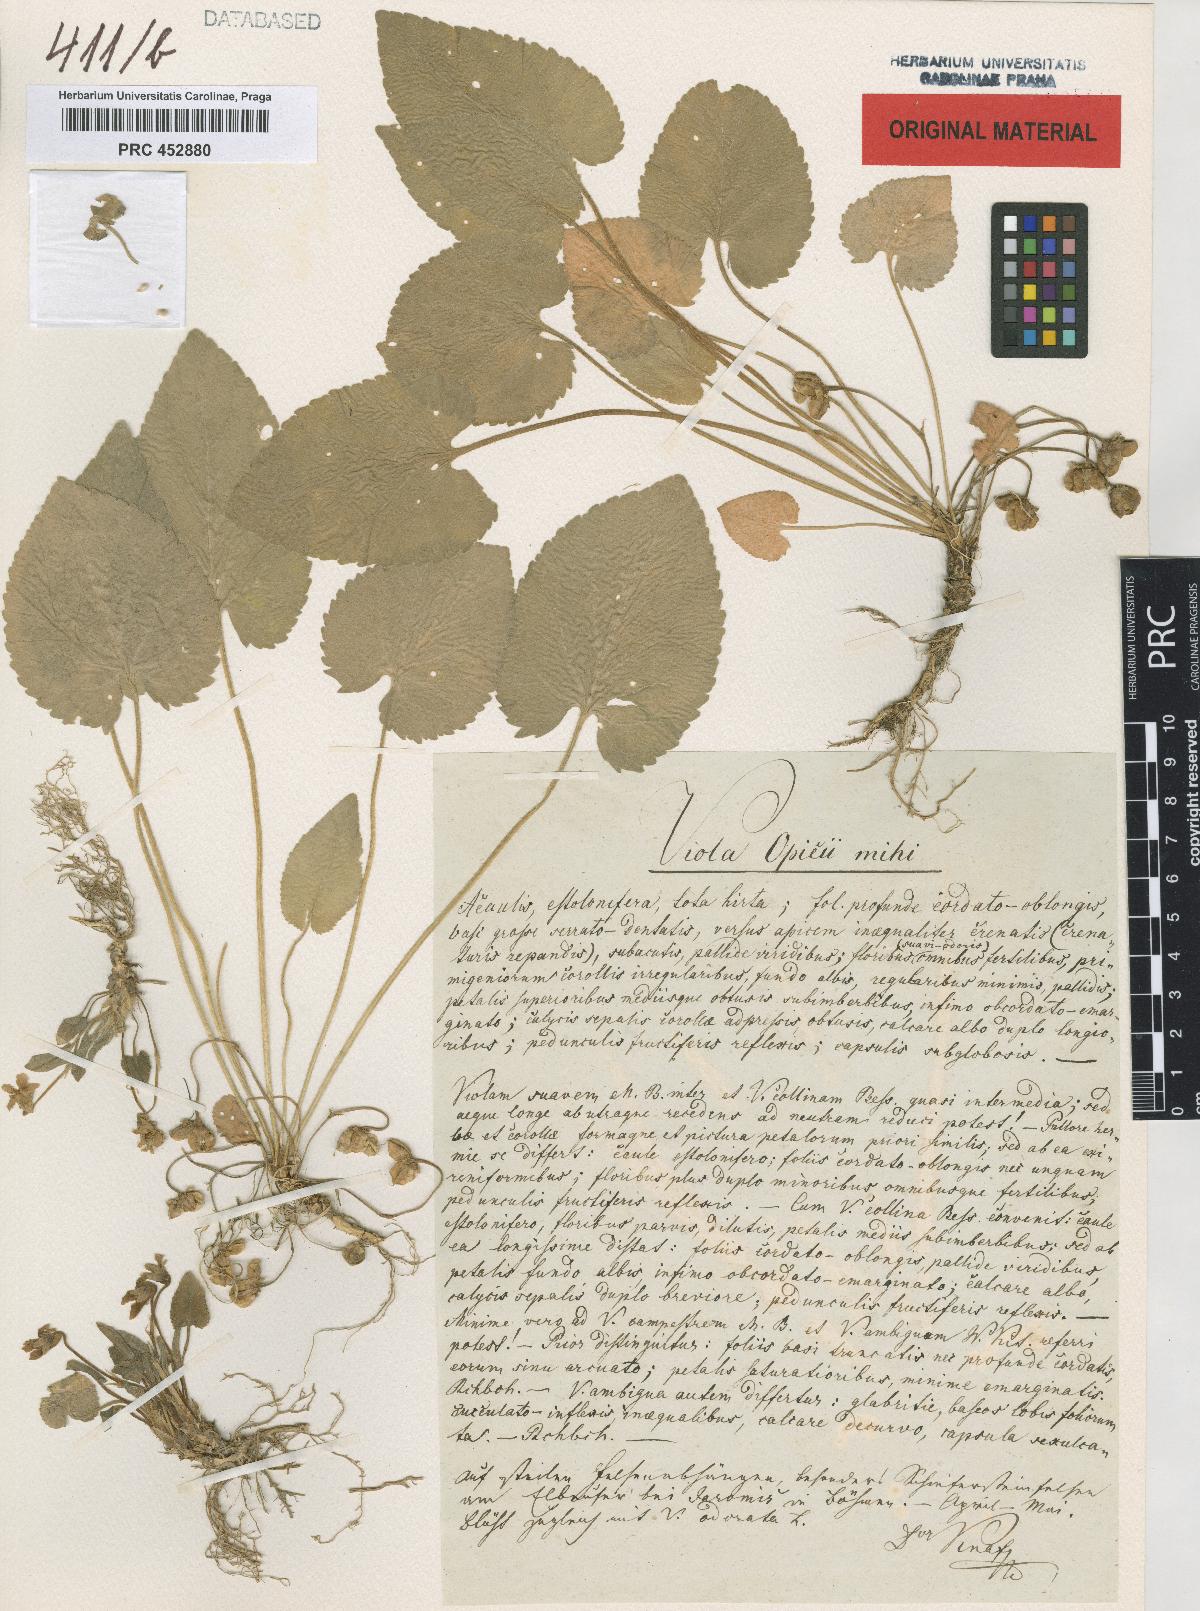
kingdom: Plantae
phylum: Tracheophyta
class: Magnoliopsida
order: Malpighiales
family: Violaceae
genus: Viola
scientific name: Viola collina
